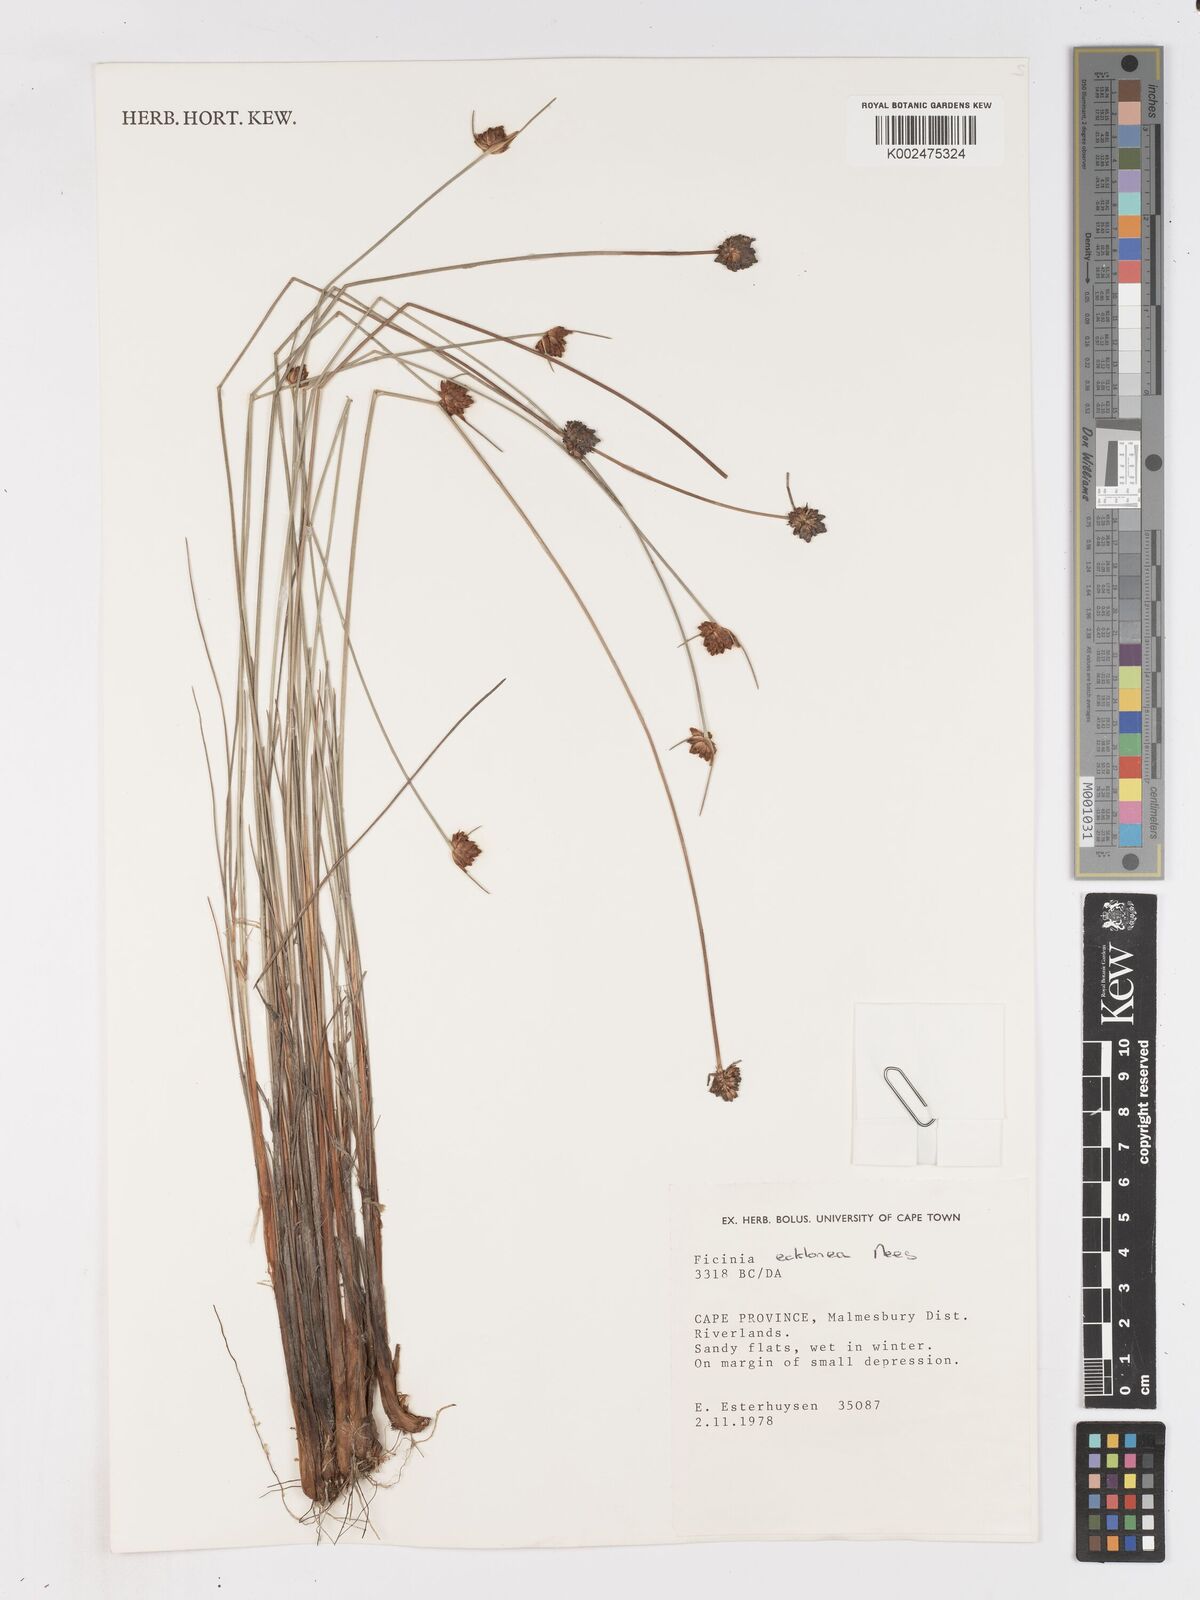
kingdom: Plantae
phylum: Tracheophyta
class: Liliopsida
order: Poales
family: Cyperaceae
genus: Ficinia
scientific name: Ficinia ecklonea
